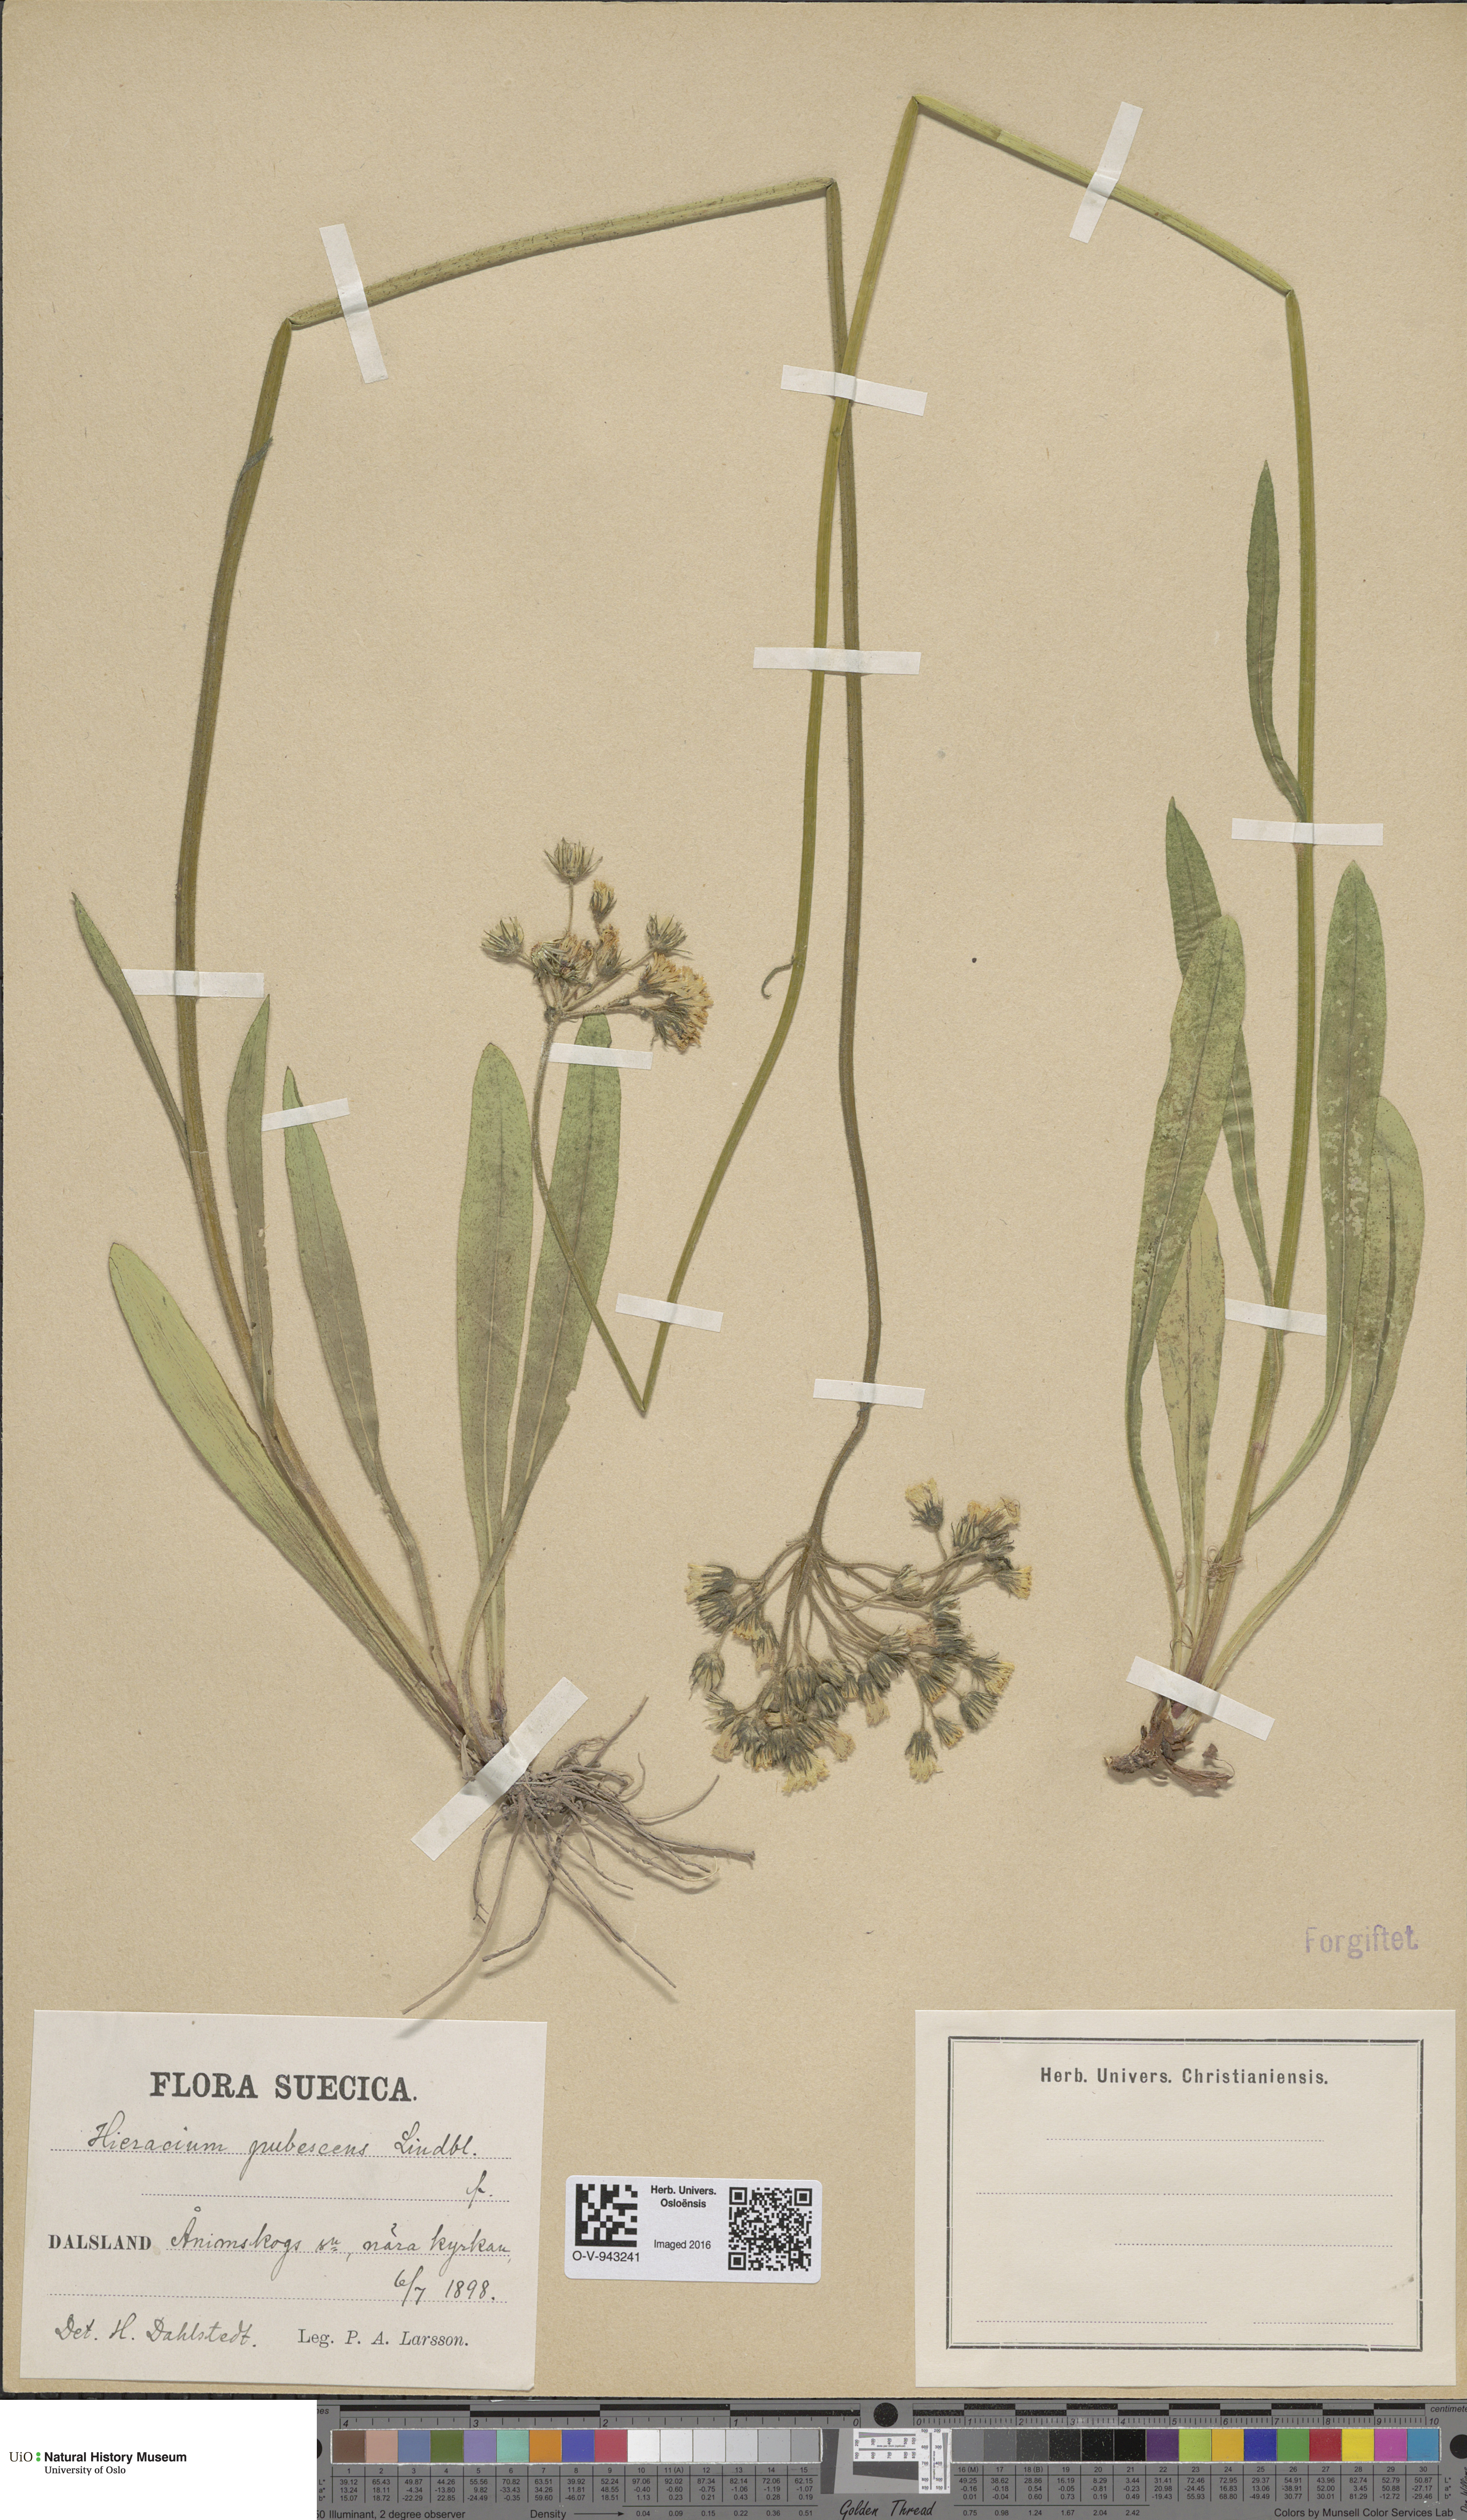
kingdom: Plantae
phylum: Tracheophyta
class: Magnoliopsida
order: Asterales
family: Asteraceae
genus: Pilosella
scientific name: Pilosella cymosa
